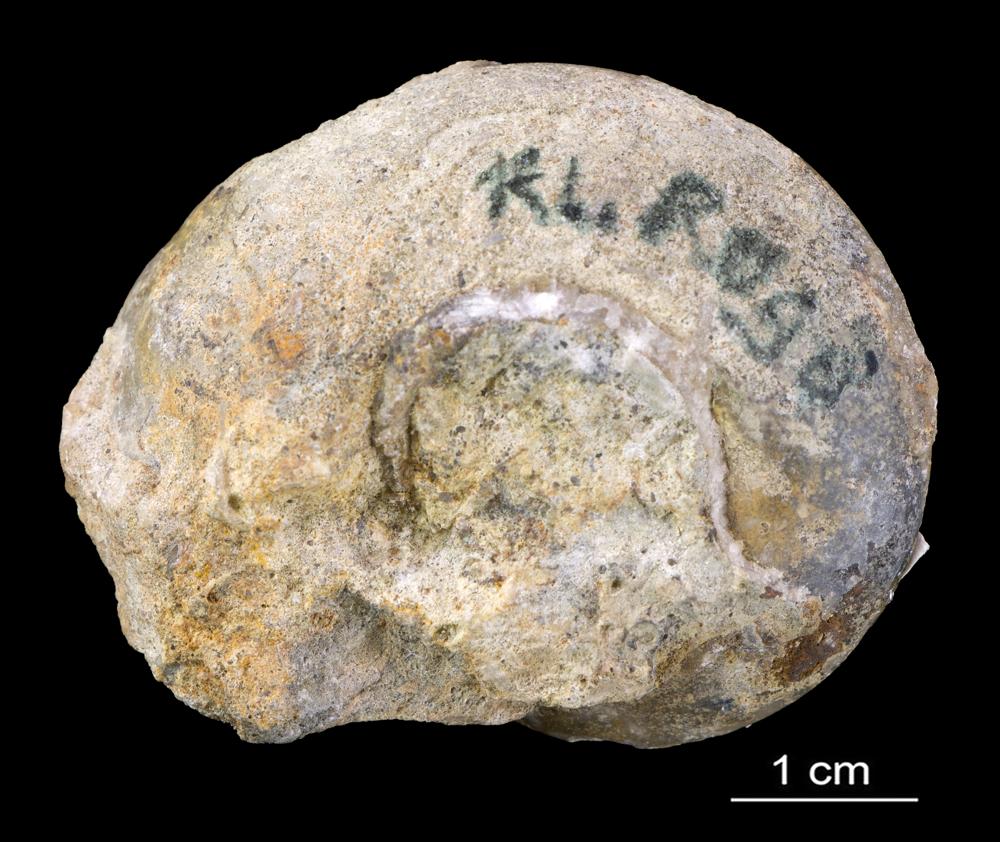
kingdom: Animalia
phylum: Mollusca
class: Gastropoda
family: Lesueurillidae
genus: Pararaphistoma
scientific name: Pararaphistoma Helicites qualteriata
